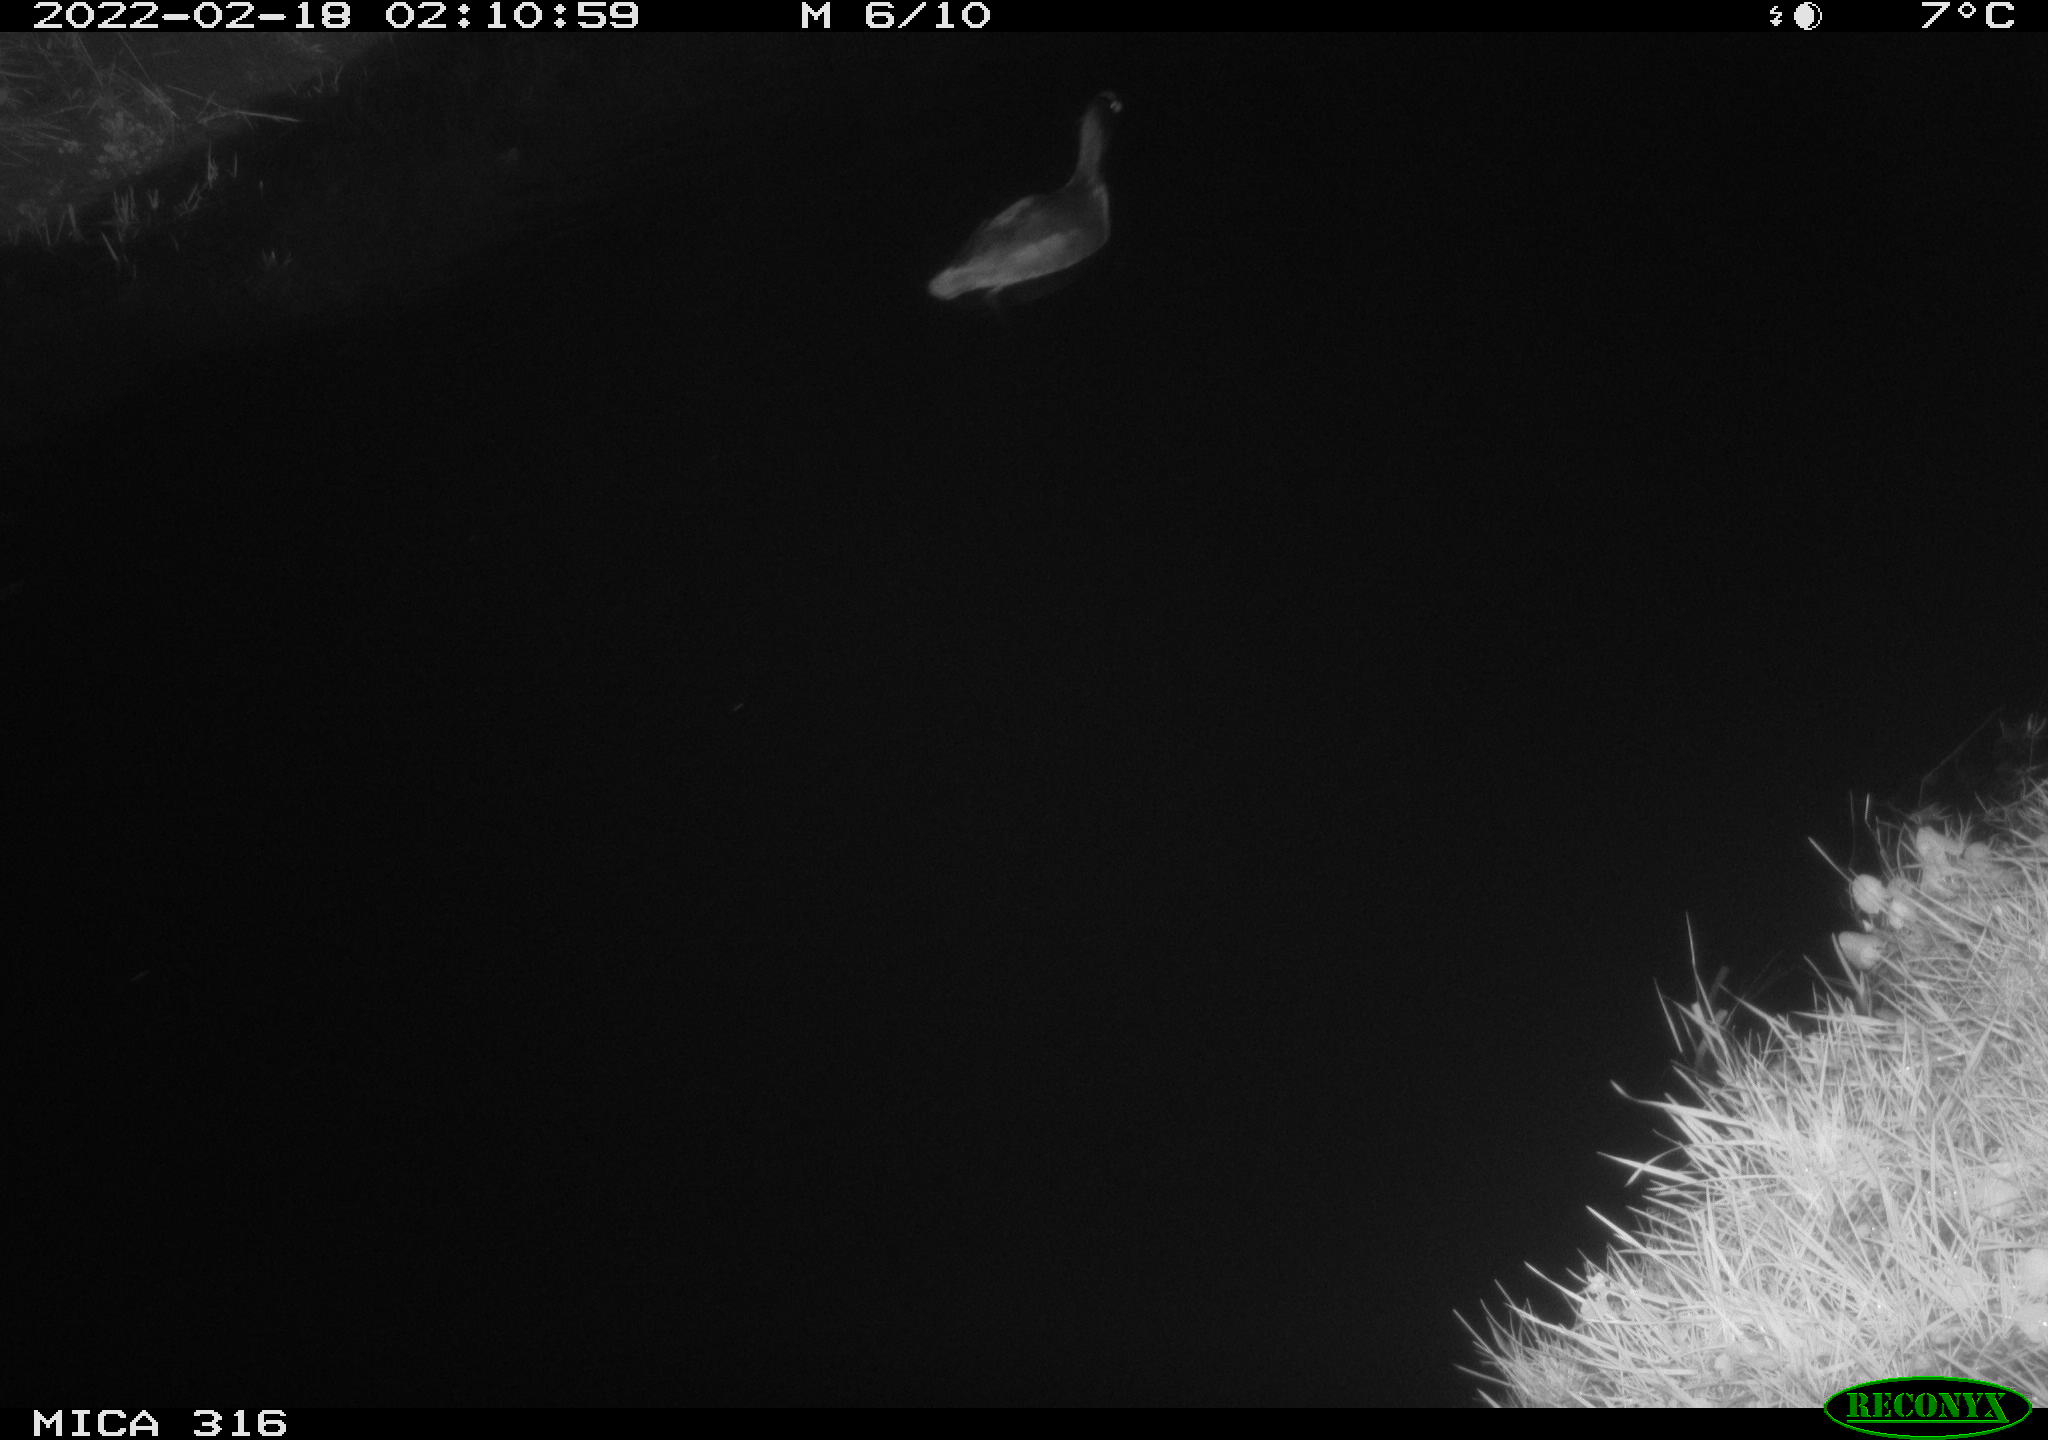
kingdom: Animalia
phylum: Chordata
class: Aves
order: Gruiformes
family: Rallidae
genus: Fulica
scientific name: Fulica atra
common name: Eurasian coot
